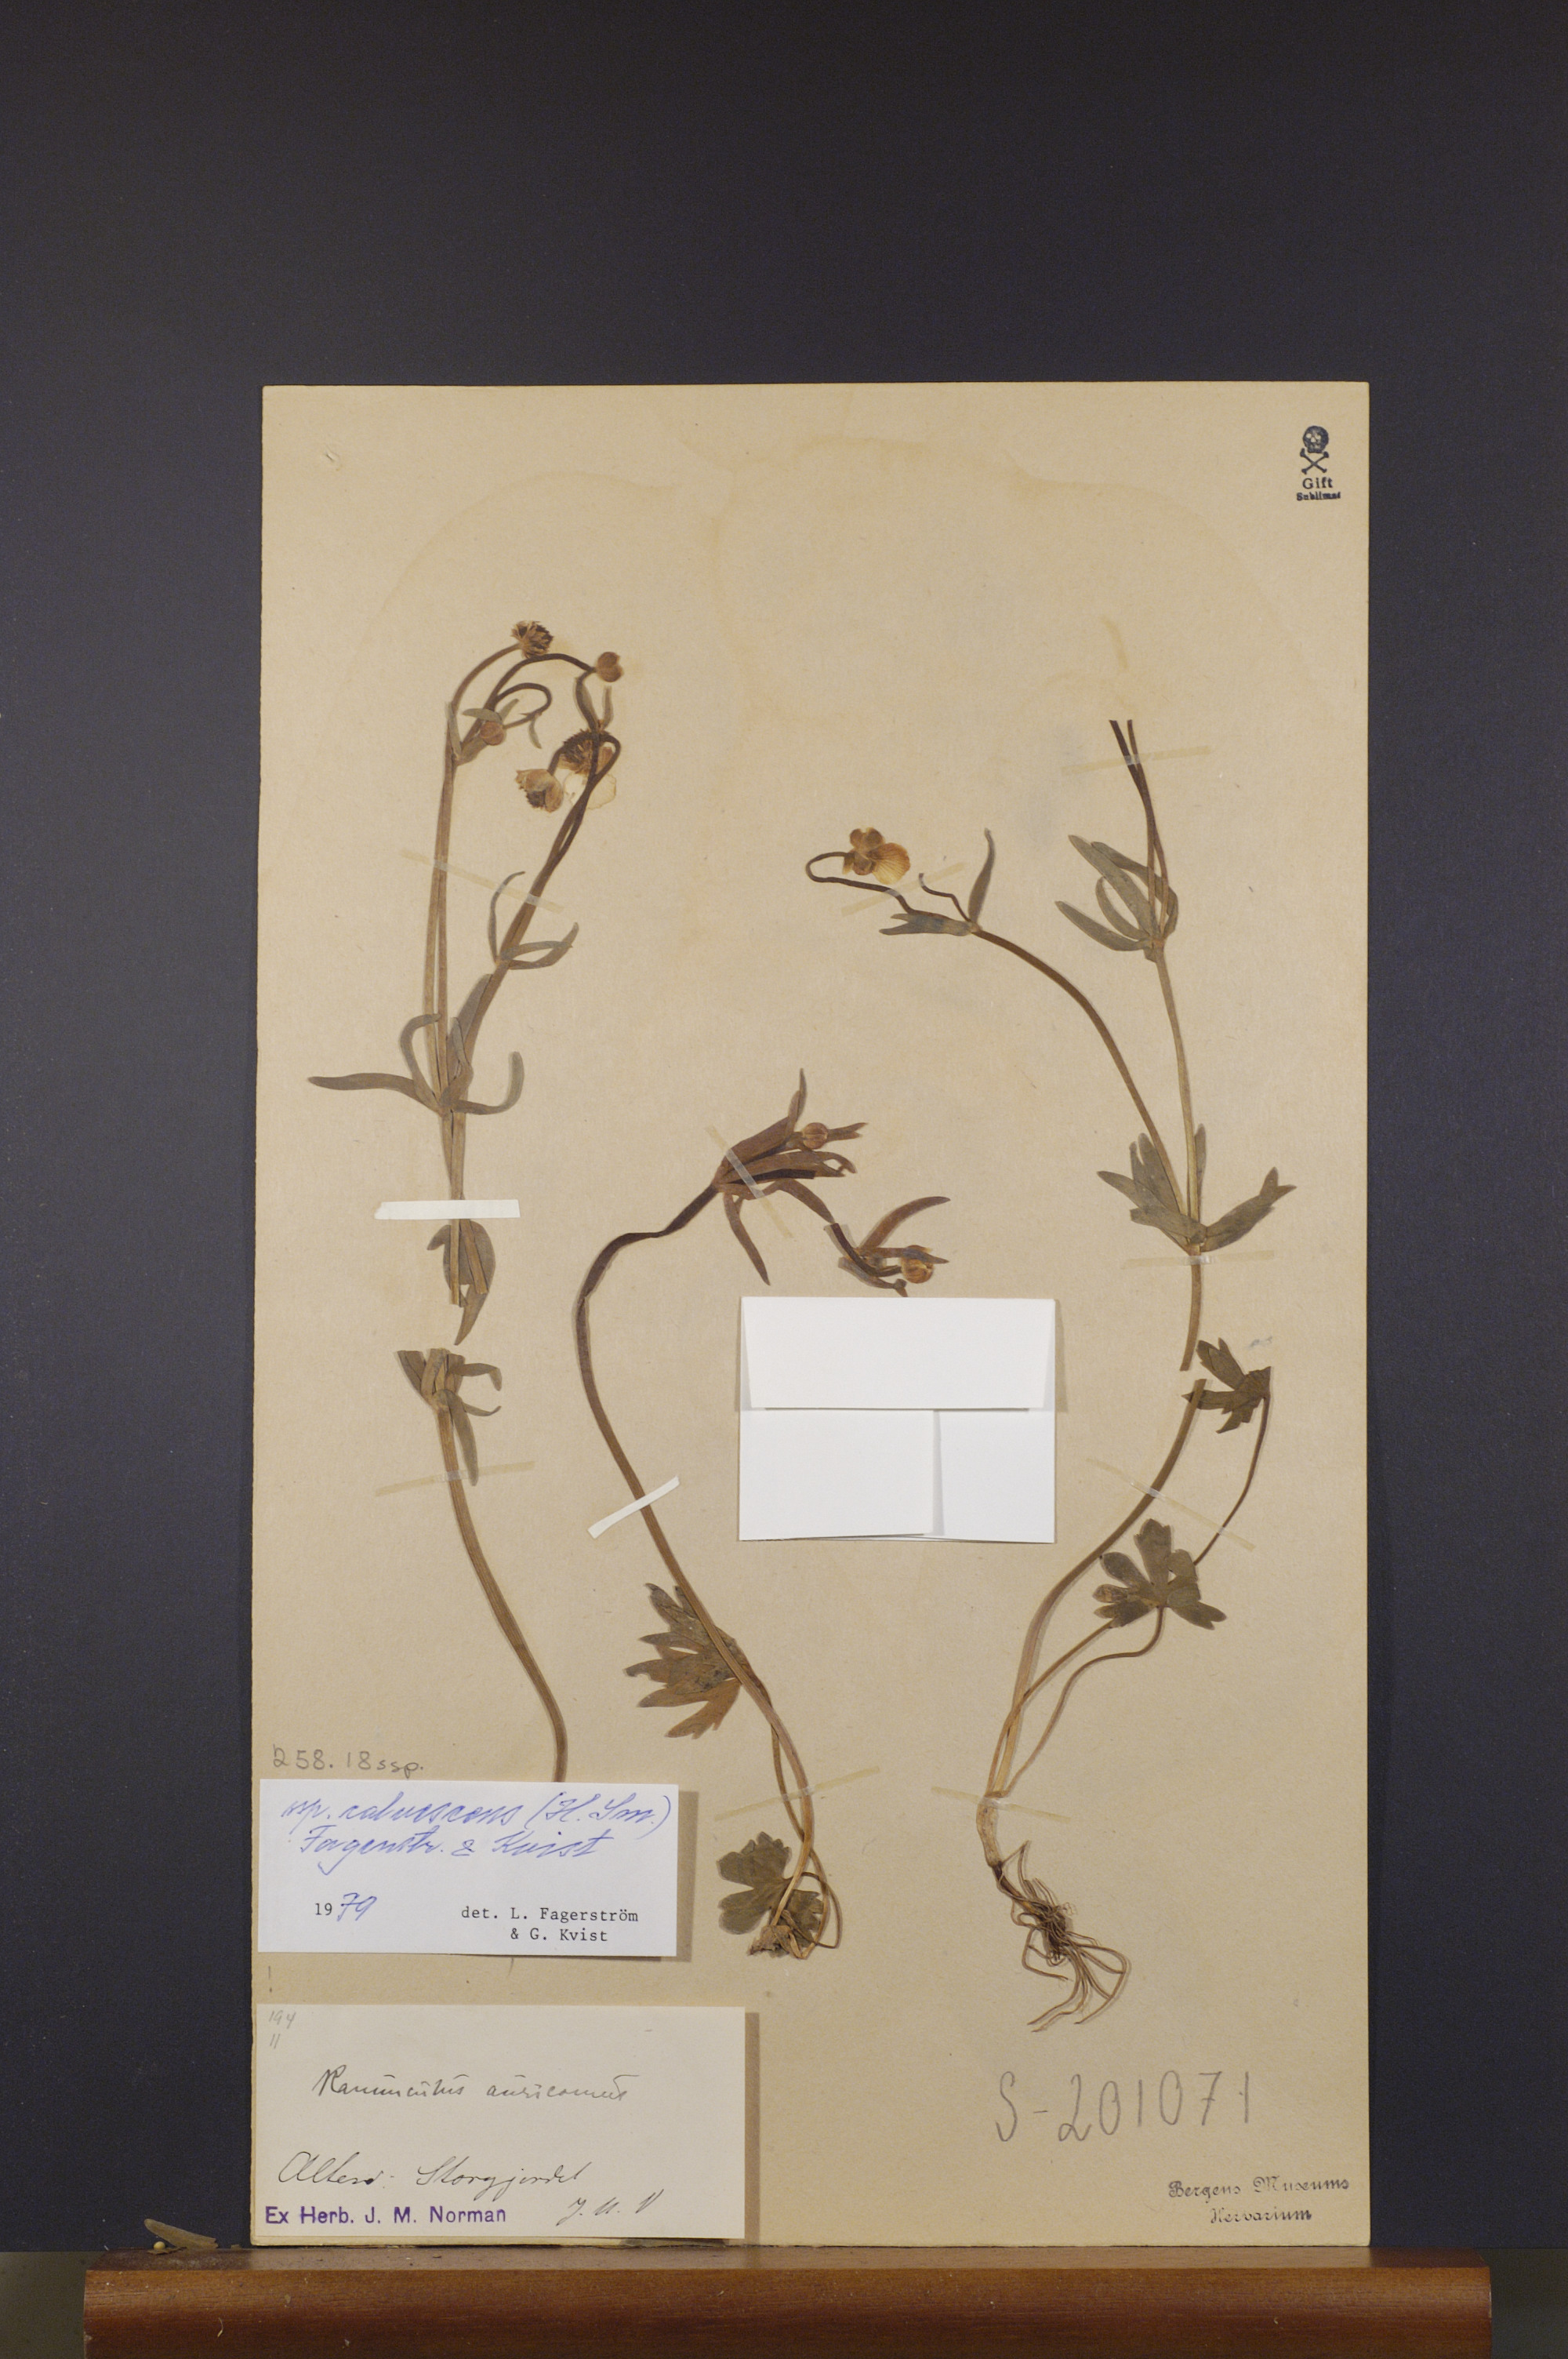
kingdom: Plantae
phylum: Tracheophyta
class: Magnoliopsida
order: Ranunculales
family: Ranunculaceae
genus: Ranunculus
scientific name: Ranunculus calvescens
